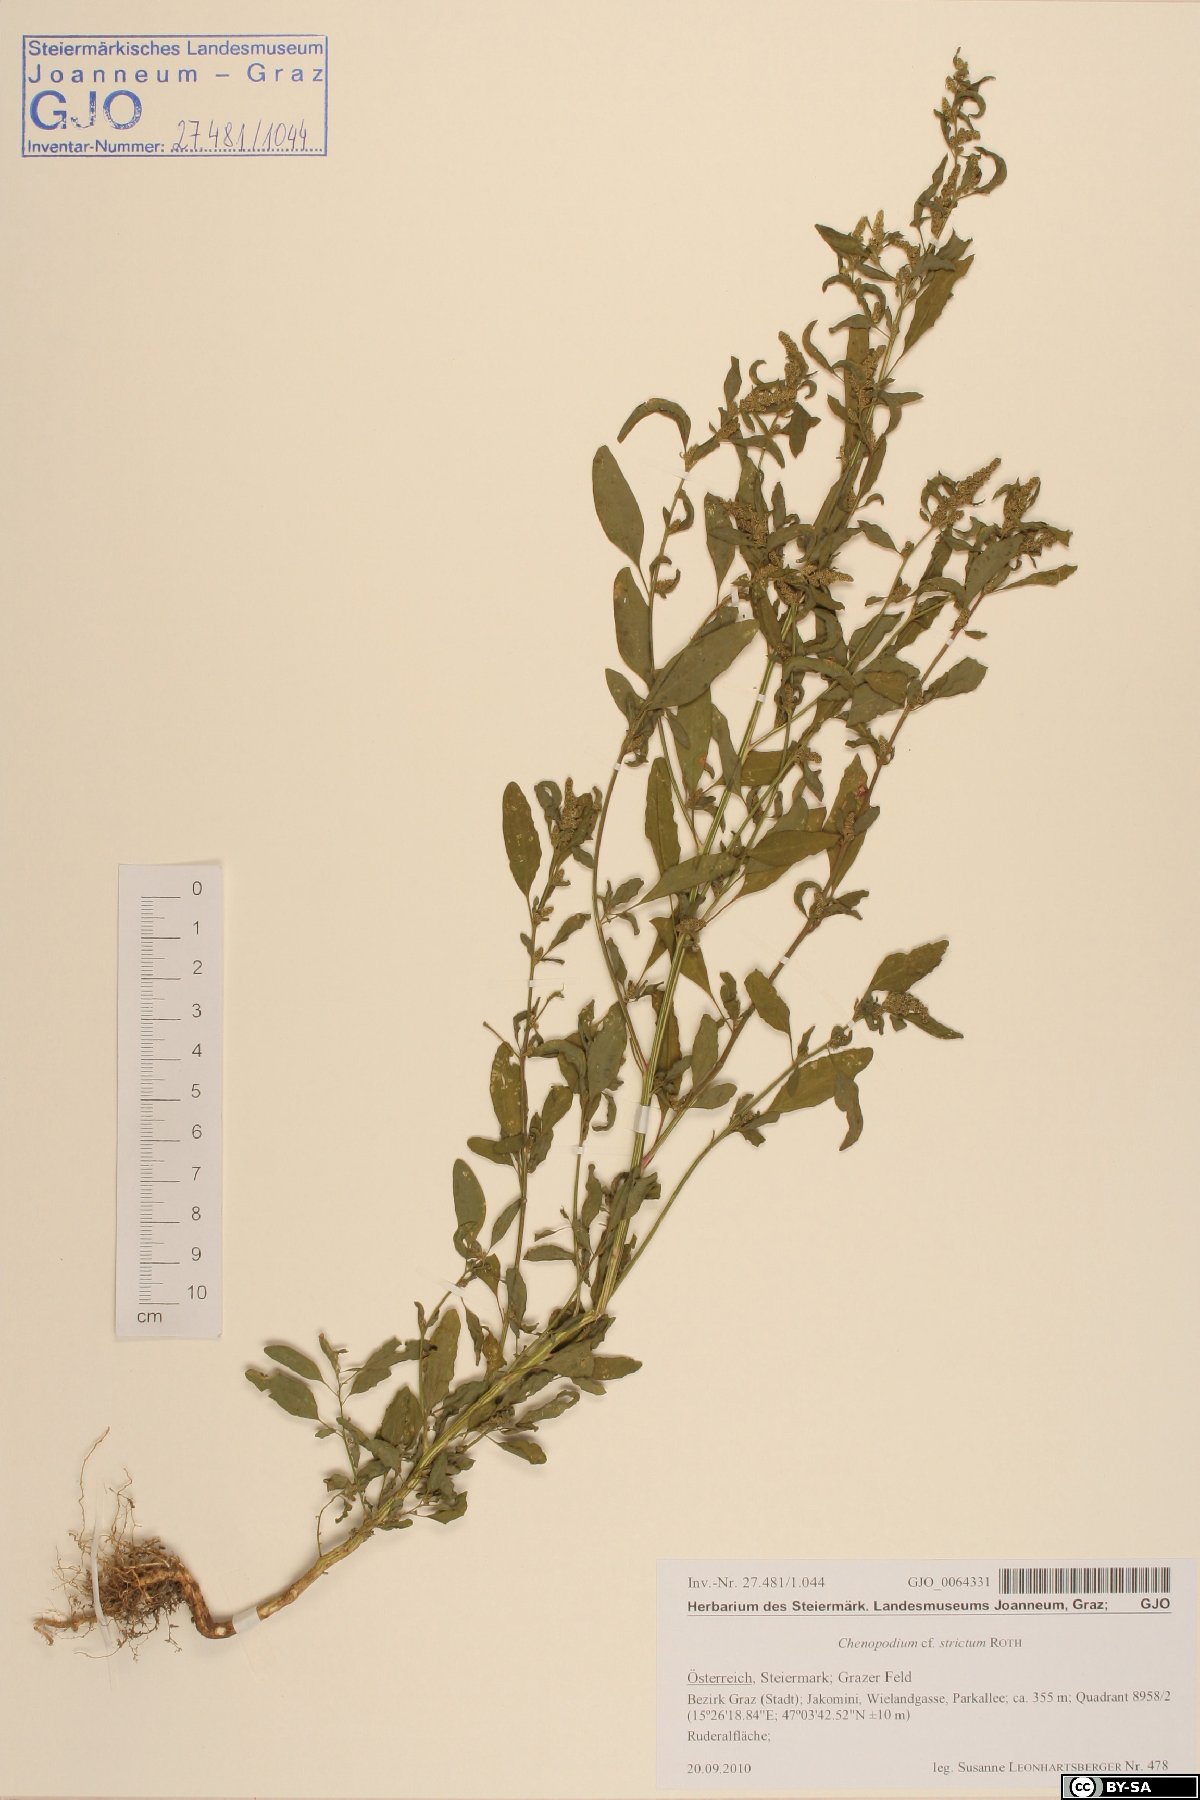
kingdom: Plantae
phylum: Tracheophyta
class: Magnoliopsida
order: Caryophyllales
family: Amaranthaceae
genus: Chenopodium
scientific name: Chenopodium album
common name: Fat-hen
